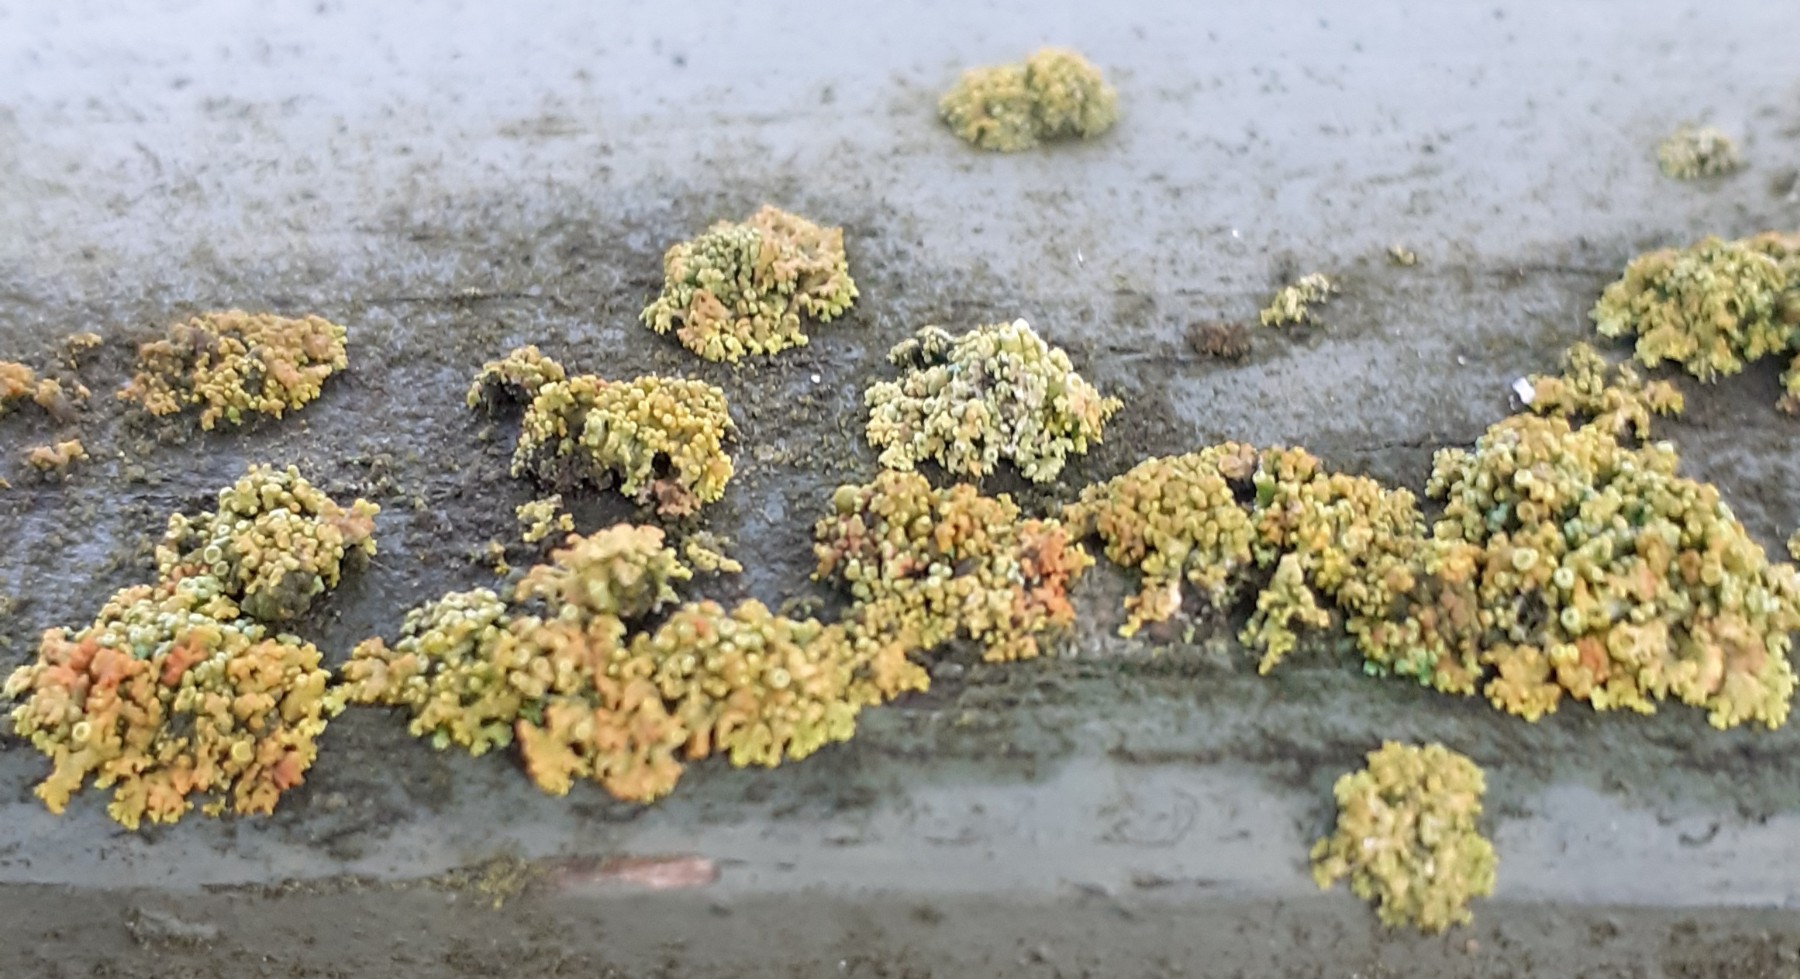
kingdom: Fungi
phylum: Ascomycota
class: Lecanoromycetes
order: Teloschistales
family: Teloschistaceae
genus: Polycauliona
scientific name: Polycauliona polycarpa
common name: mangefrugtet orangelav
